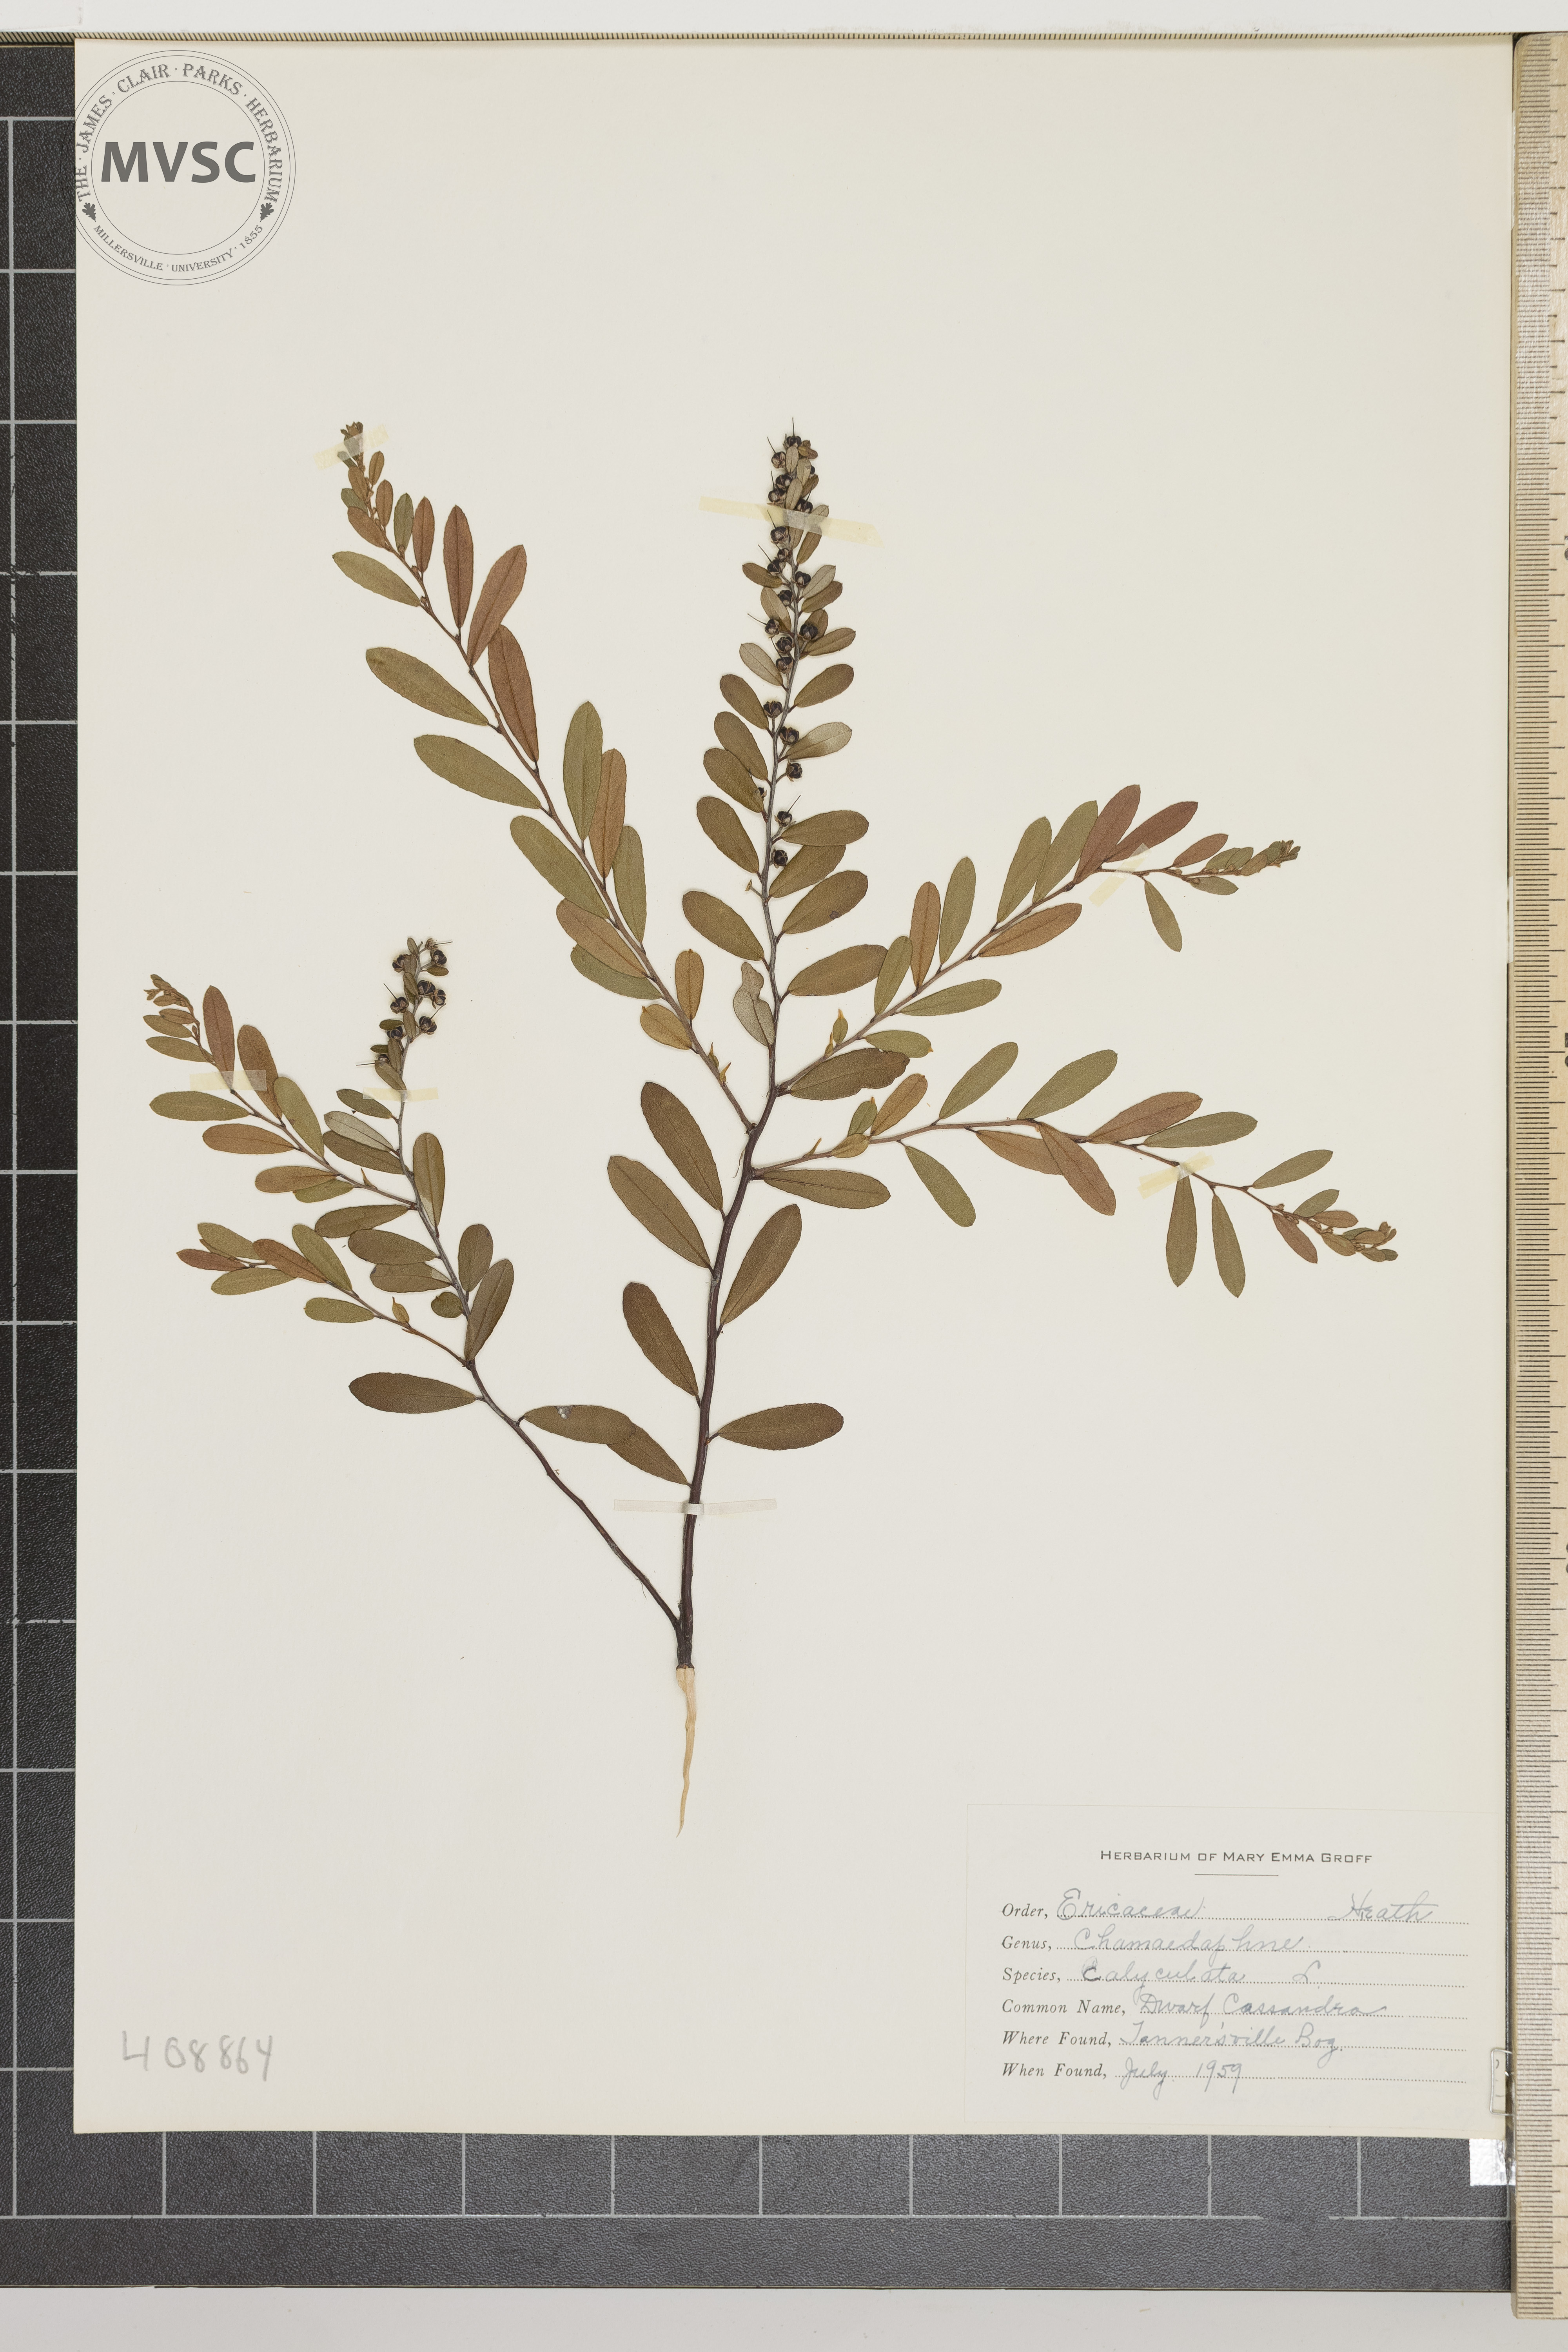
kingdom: Plantae
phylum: Tracheophyta
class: Magnoliopsida
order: Ericales
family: Ericaceae
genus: Chamaedaphne
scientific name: Chamaedaphne calyculata
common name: dwarf Cassandra
